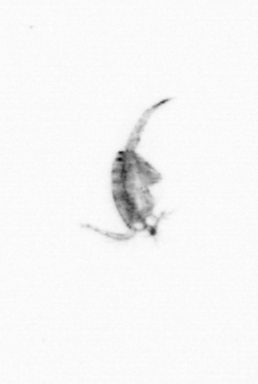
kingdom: Animalia
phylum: Arthropoda
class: Copepoda
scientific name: Copepoda
